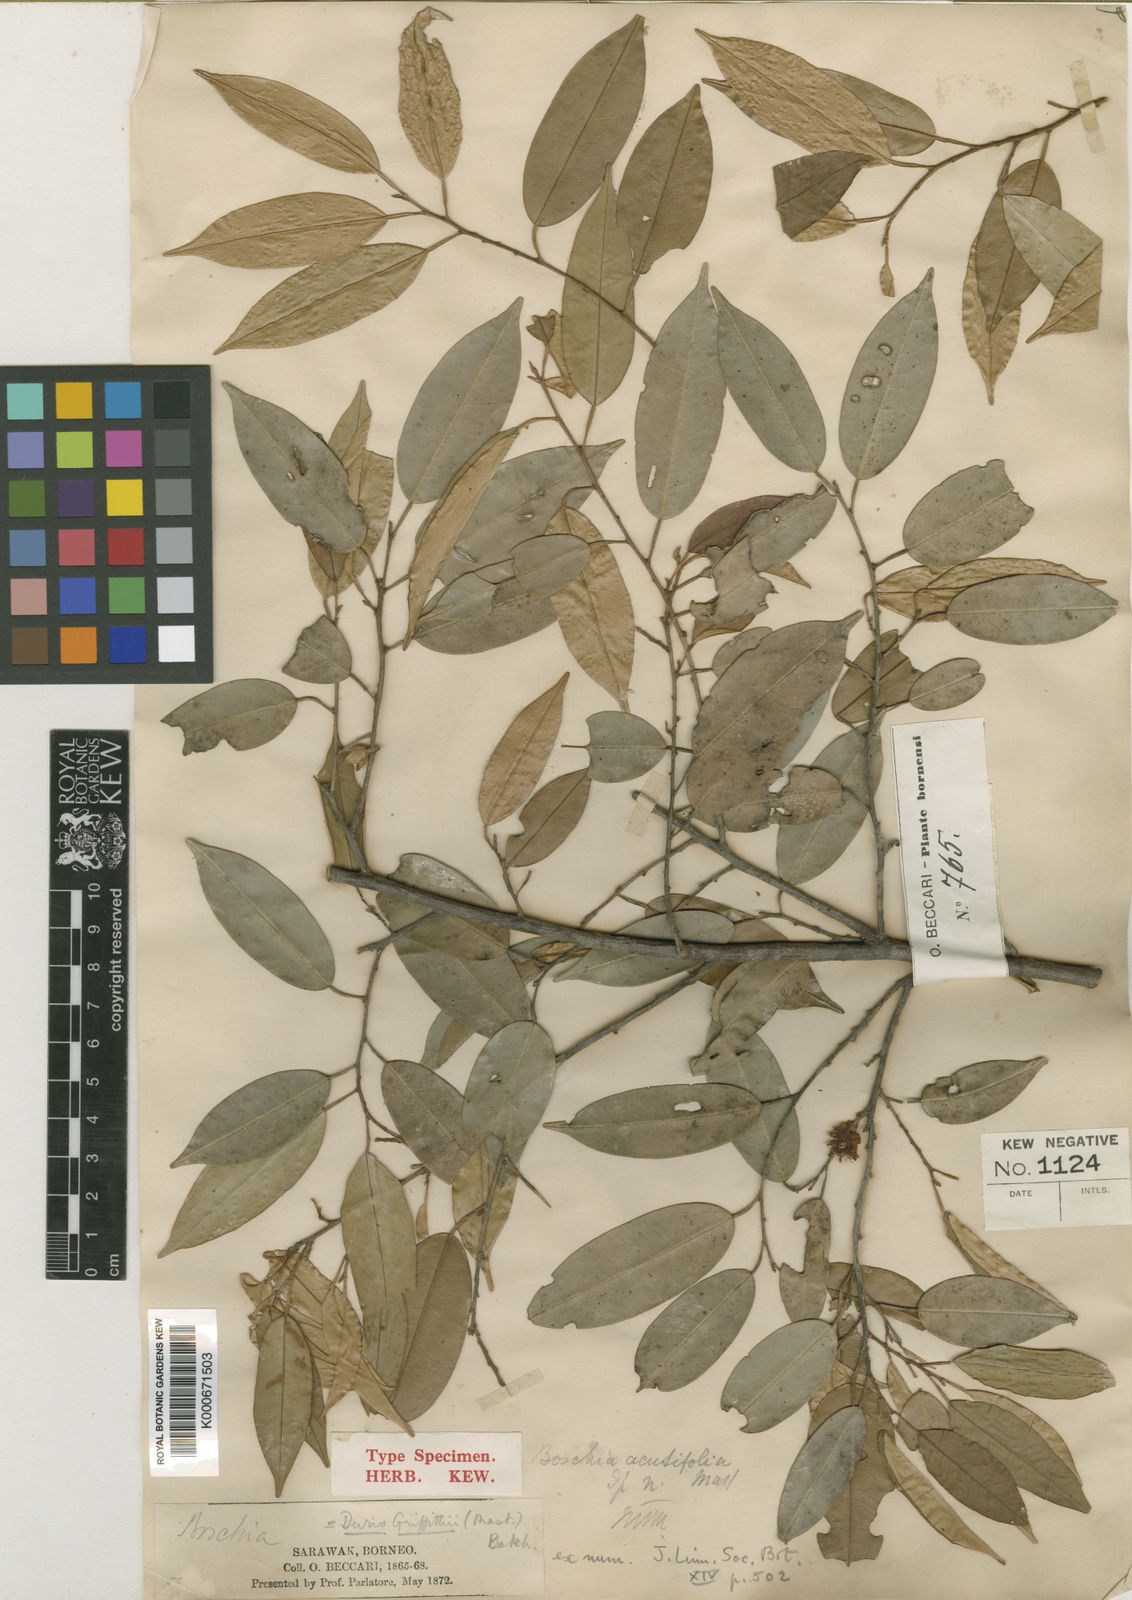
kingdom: Plantae
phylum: Tracheophyta
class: Magnoliopsida
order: Malvales
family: Malvaceae
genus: Boschia
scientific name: Boschia griffithii
